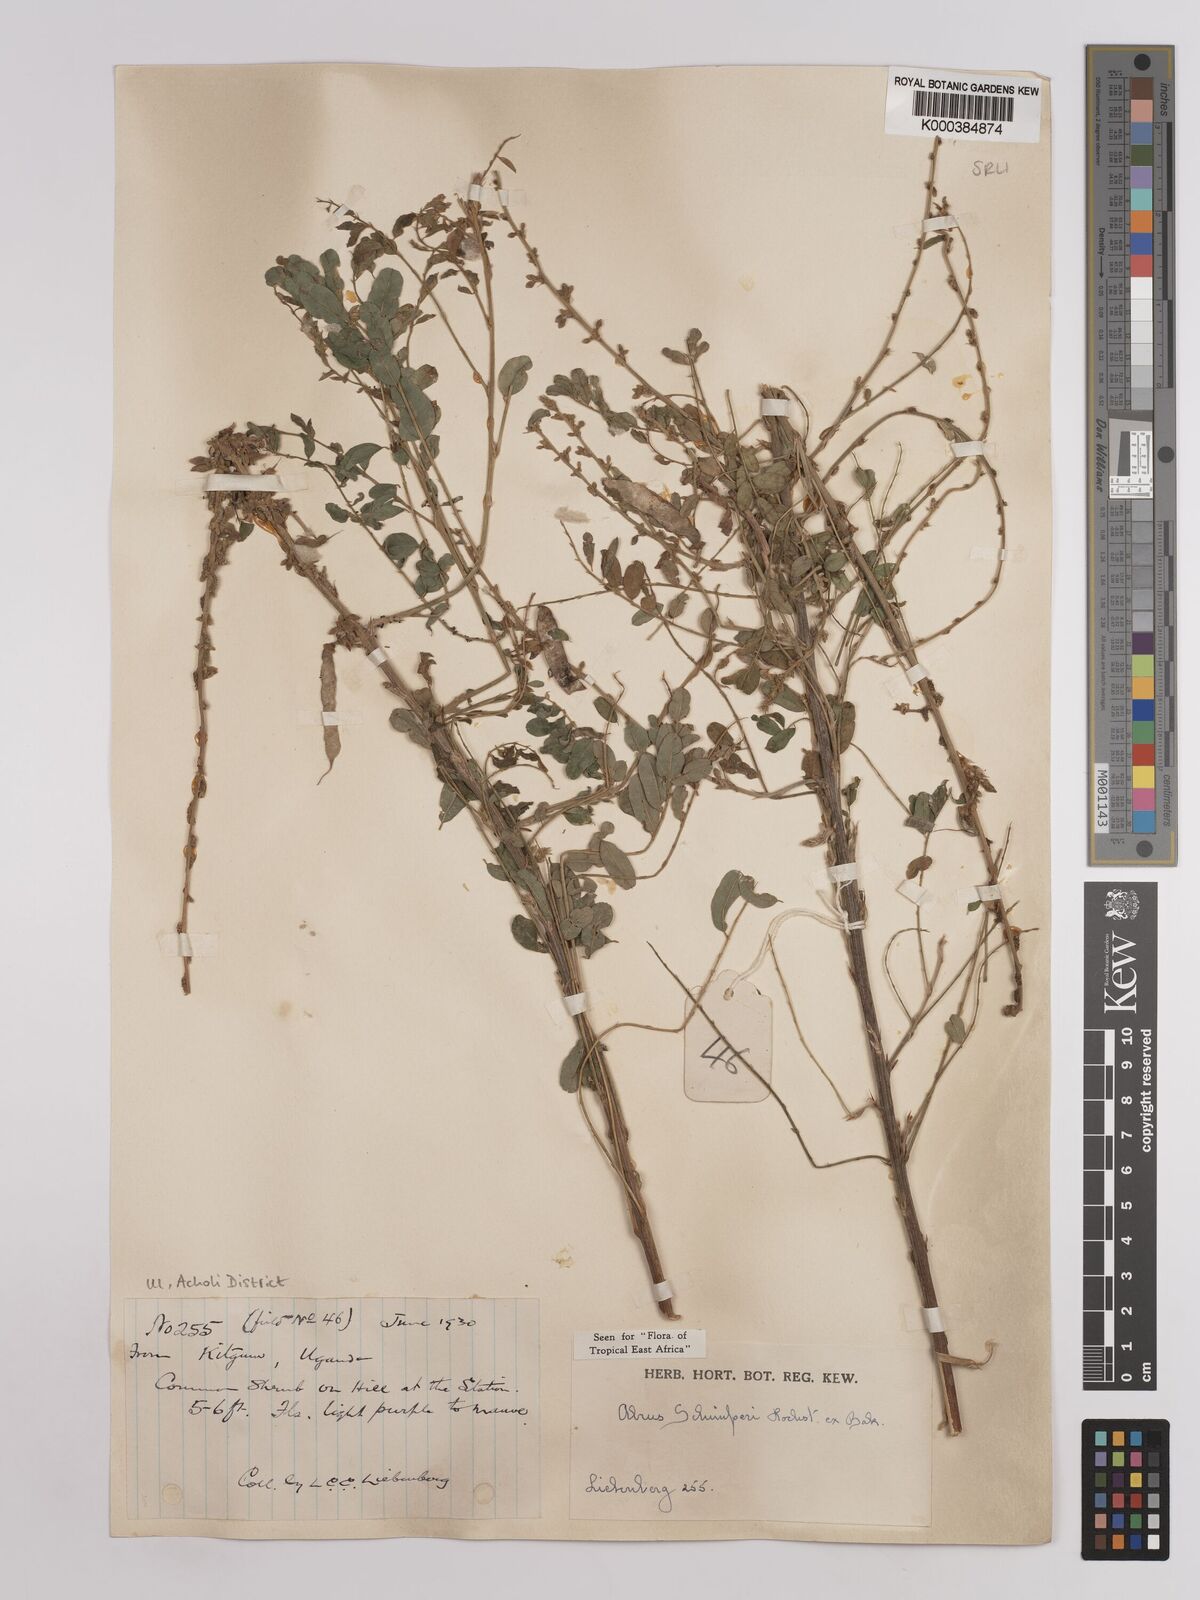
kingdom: Plantae
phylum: Tracheophyta
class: Magnoliopsida
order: Fabales
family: Fabaceae
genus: Abrus
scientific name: Abrus fruticulosus
